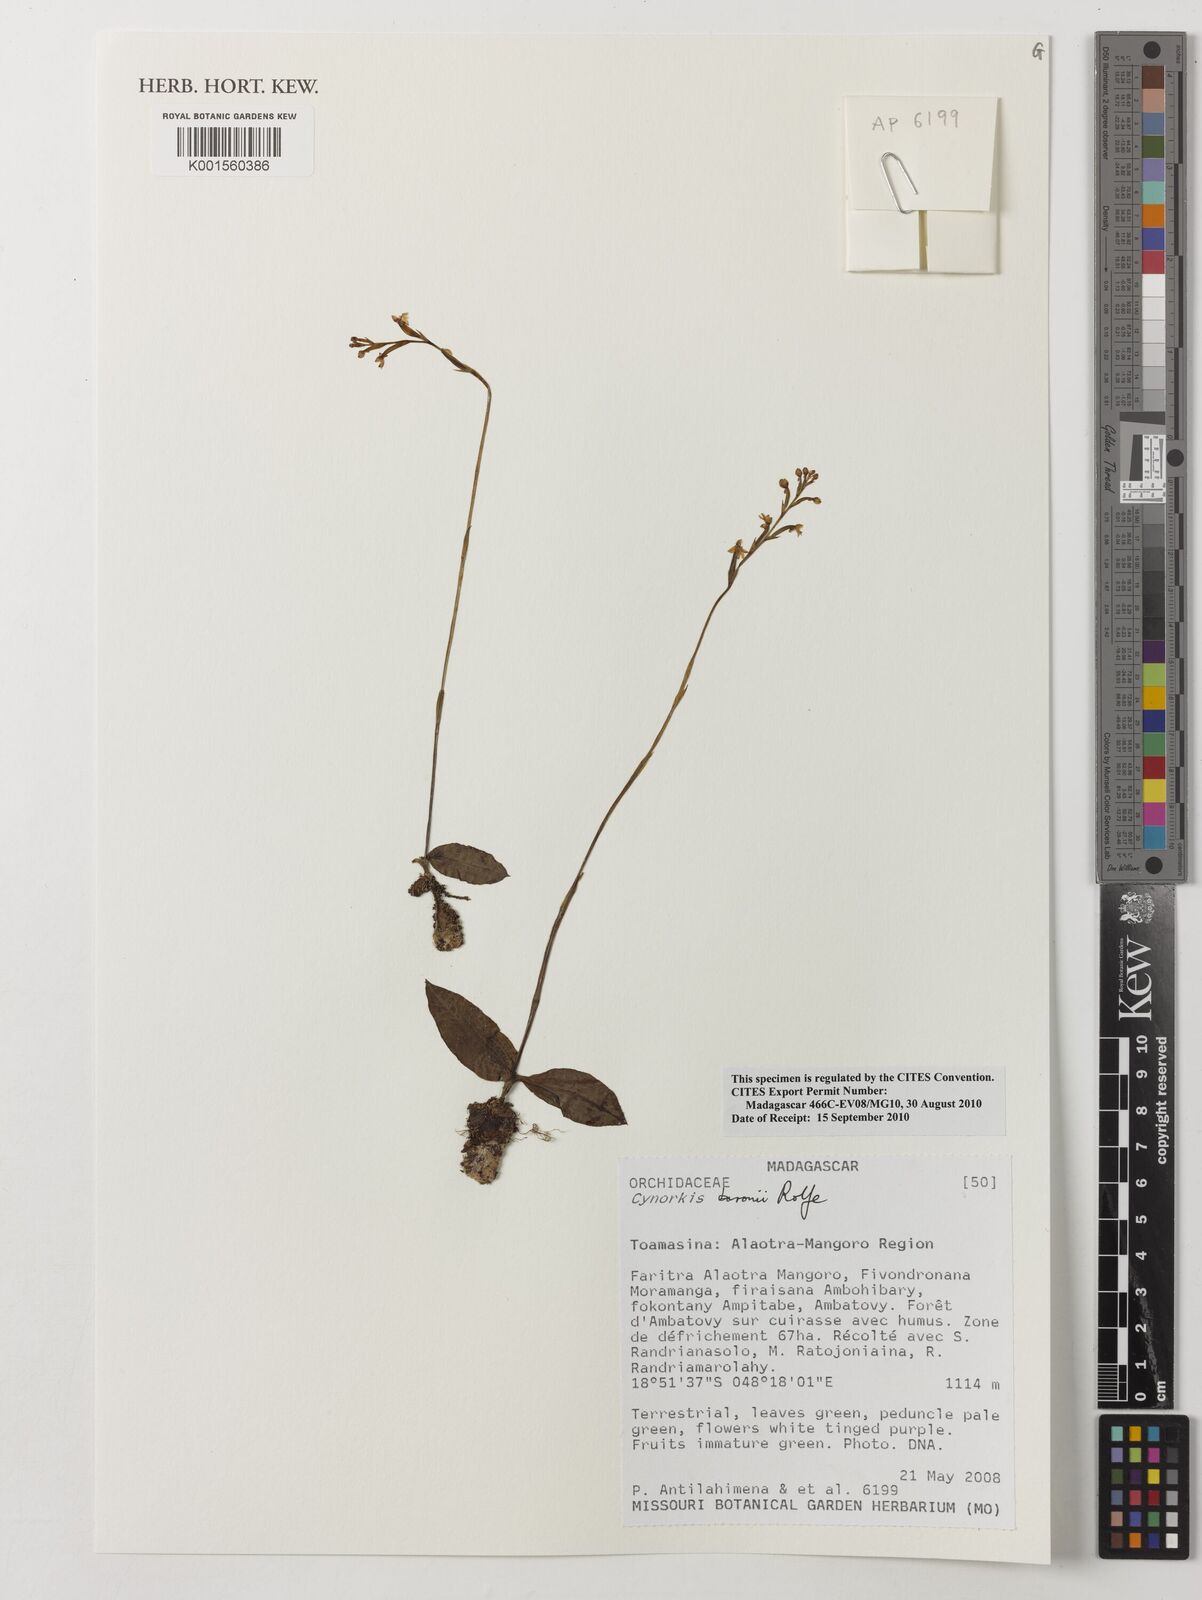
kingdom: Plantae
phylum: Tracheophyta
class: Liliopsida
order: Asparagales
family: Orchidaceae
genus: Cynorkis
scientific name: Cynorkis baronii
